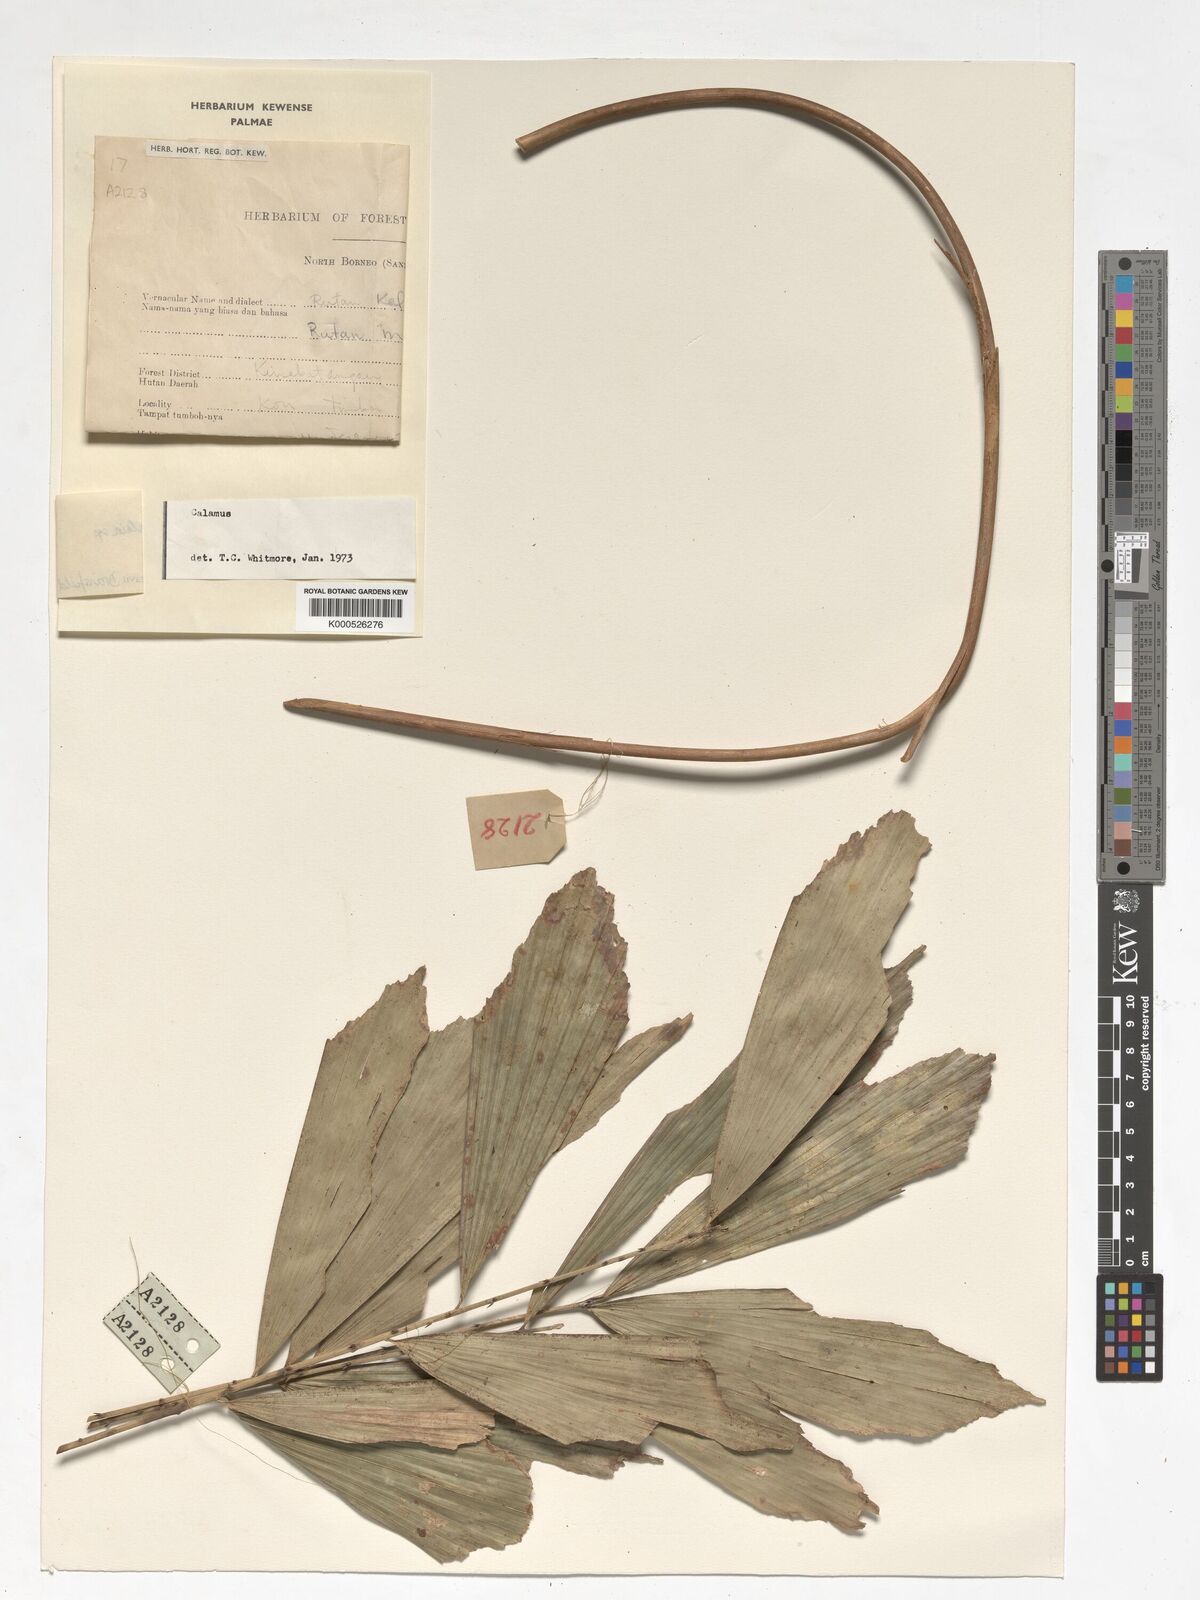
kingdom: Plantae
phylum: Tracheophyta
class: Liliopsida
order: Arecales
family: Arecaceae
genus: Korthalsia
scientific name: Korthalsia
